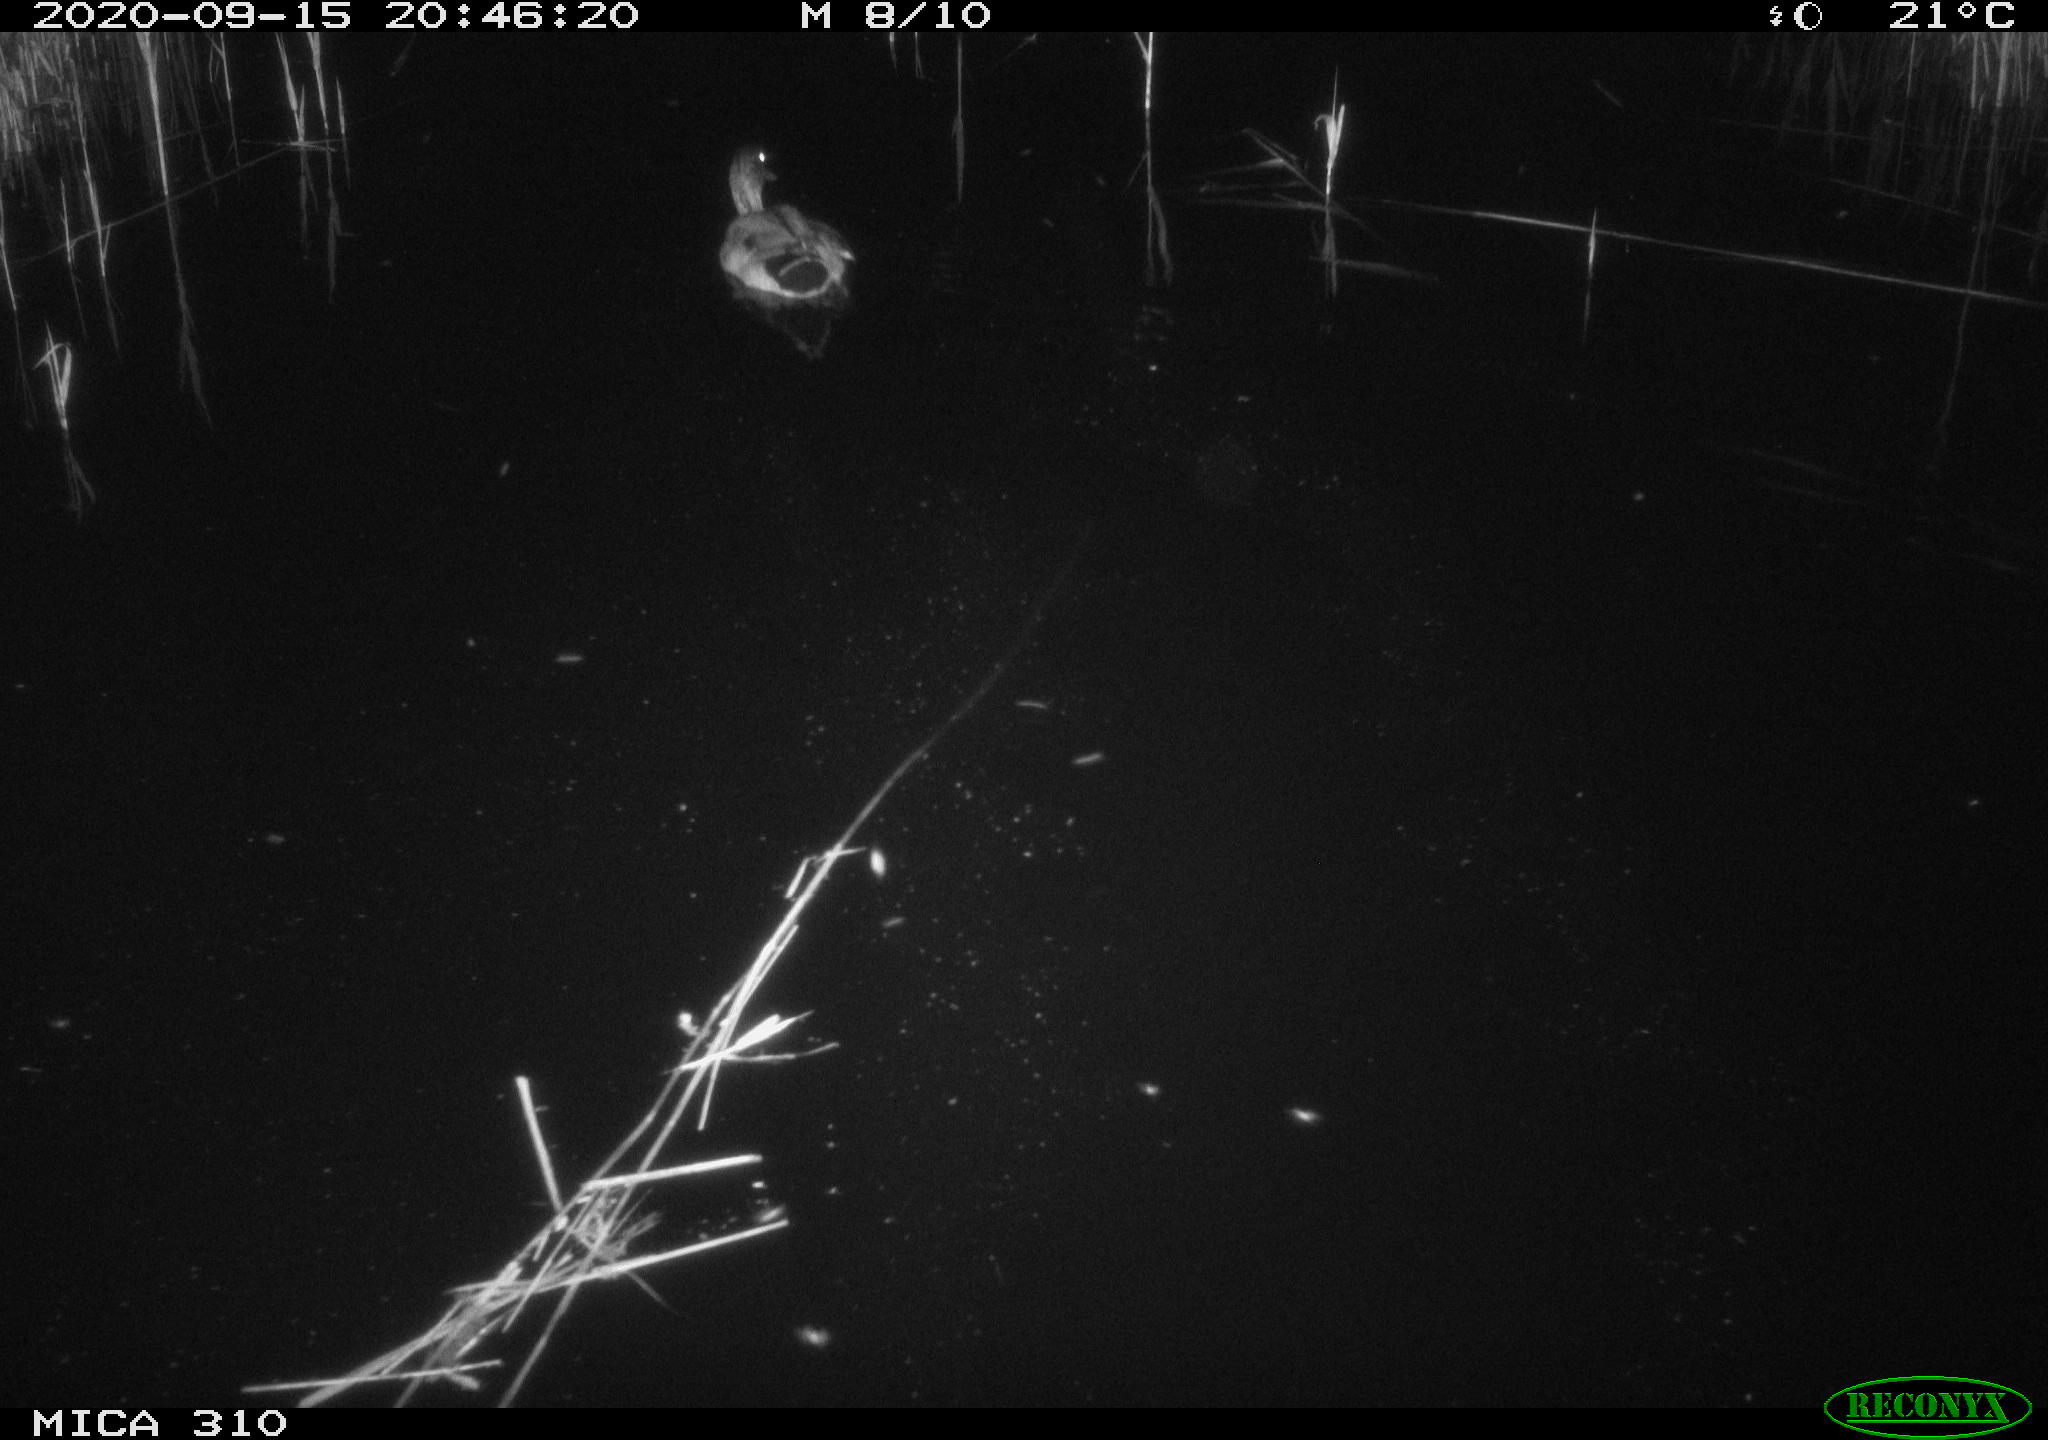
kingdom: Animalia
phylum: Chordata
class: Aves
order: Anseriformes
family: Anatidae
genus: Anas
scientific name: Anas platyrhynchos
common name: Mallard
